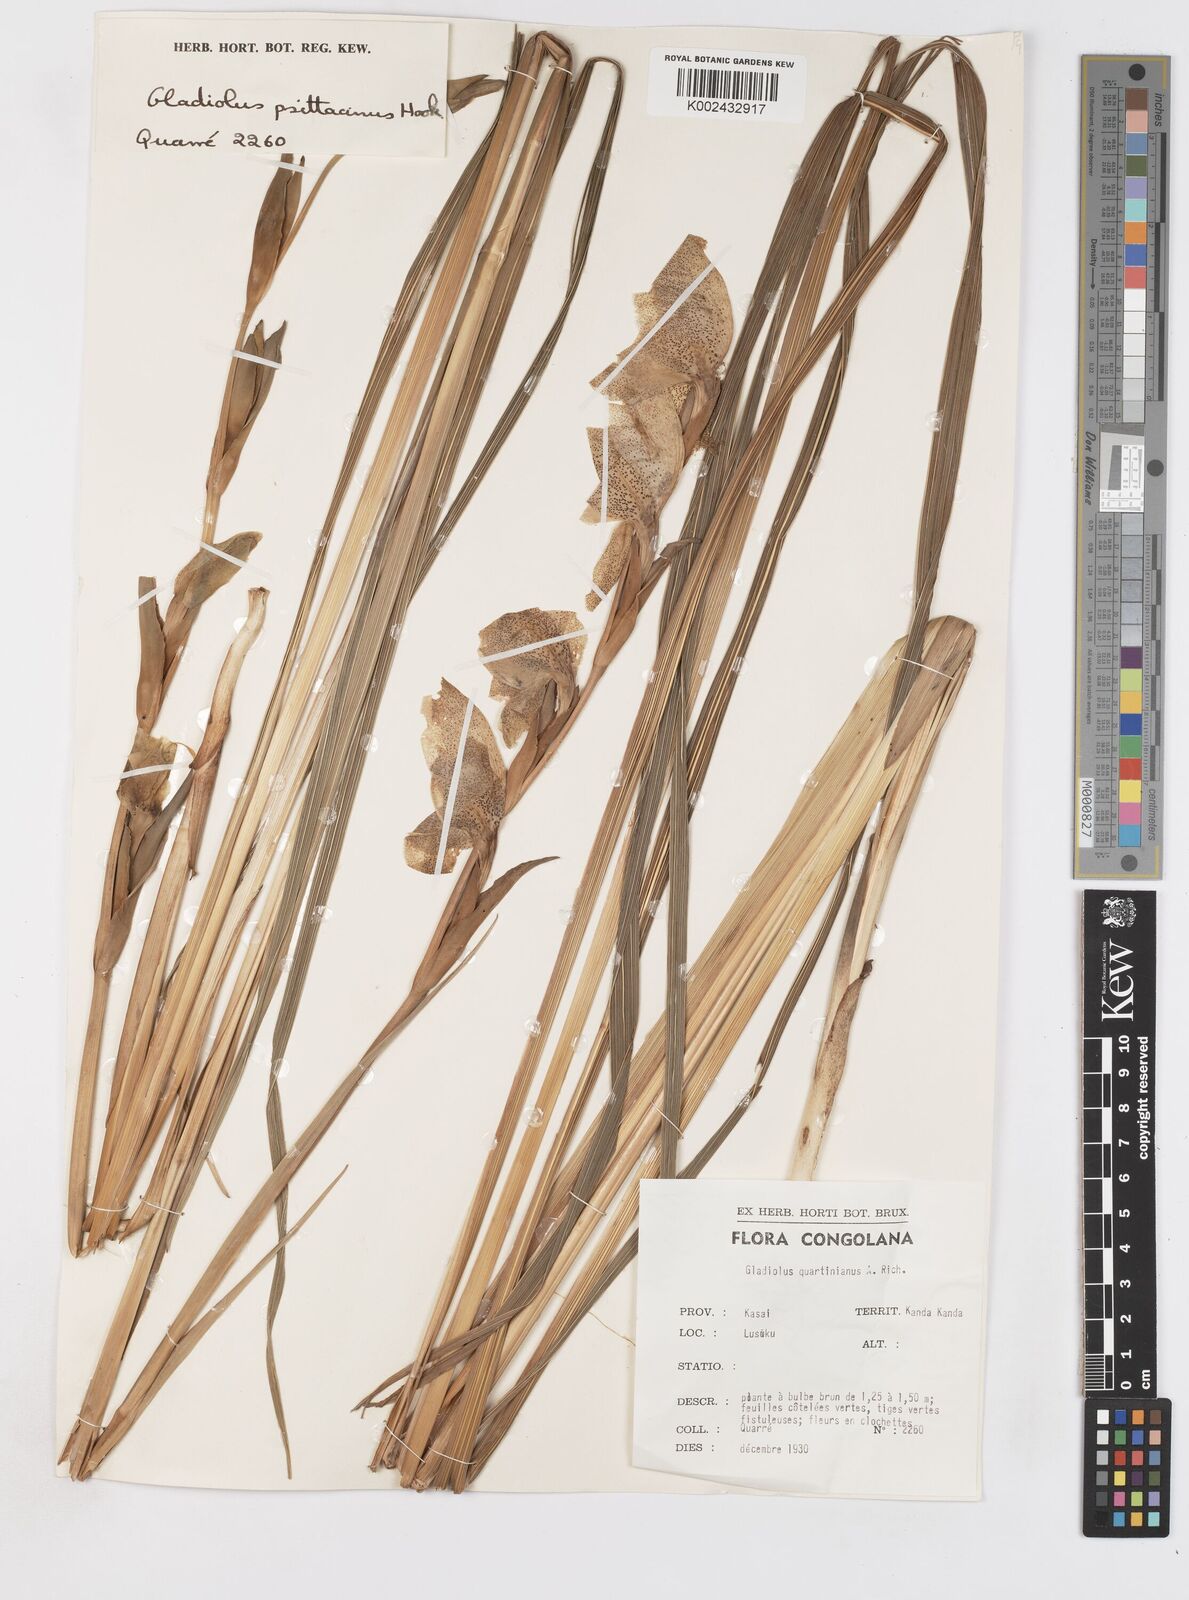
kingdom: Plantae
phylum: Tracheophyta
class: Liliopsida
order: Asparagales
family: Iridaceae
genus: Gladiolus
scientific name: Gladiolus dalenii
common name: Cornflag
